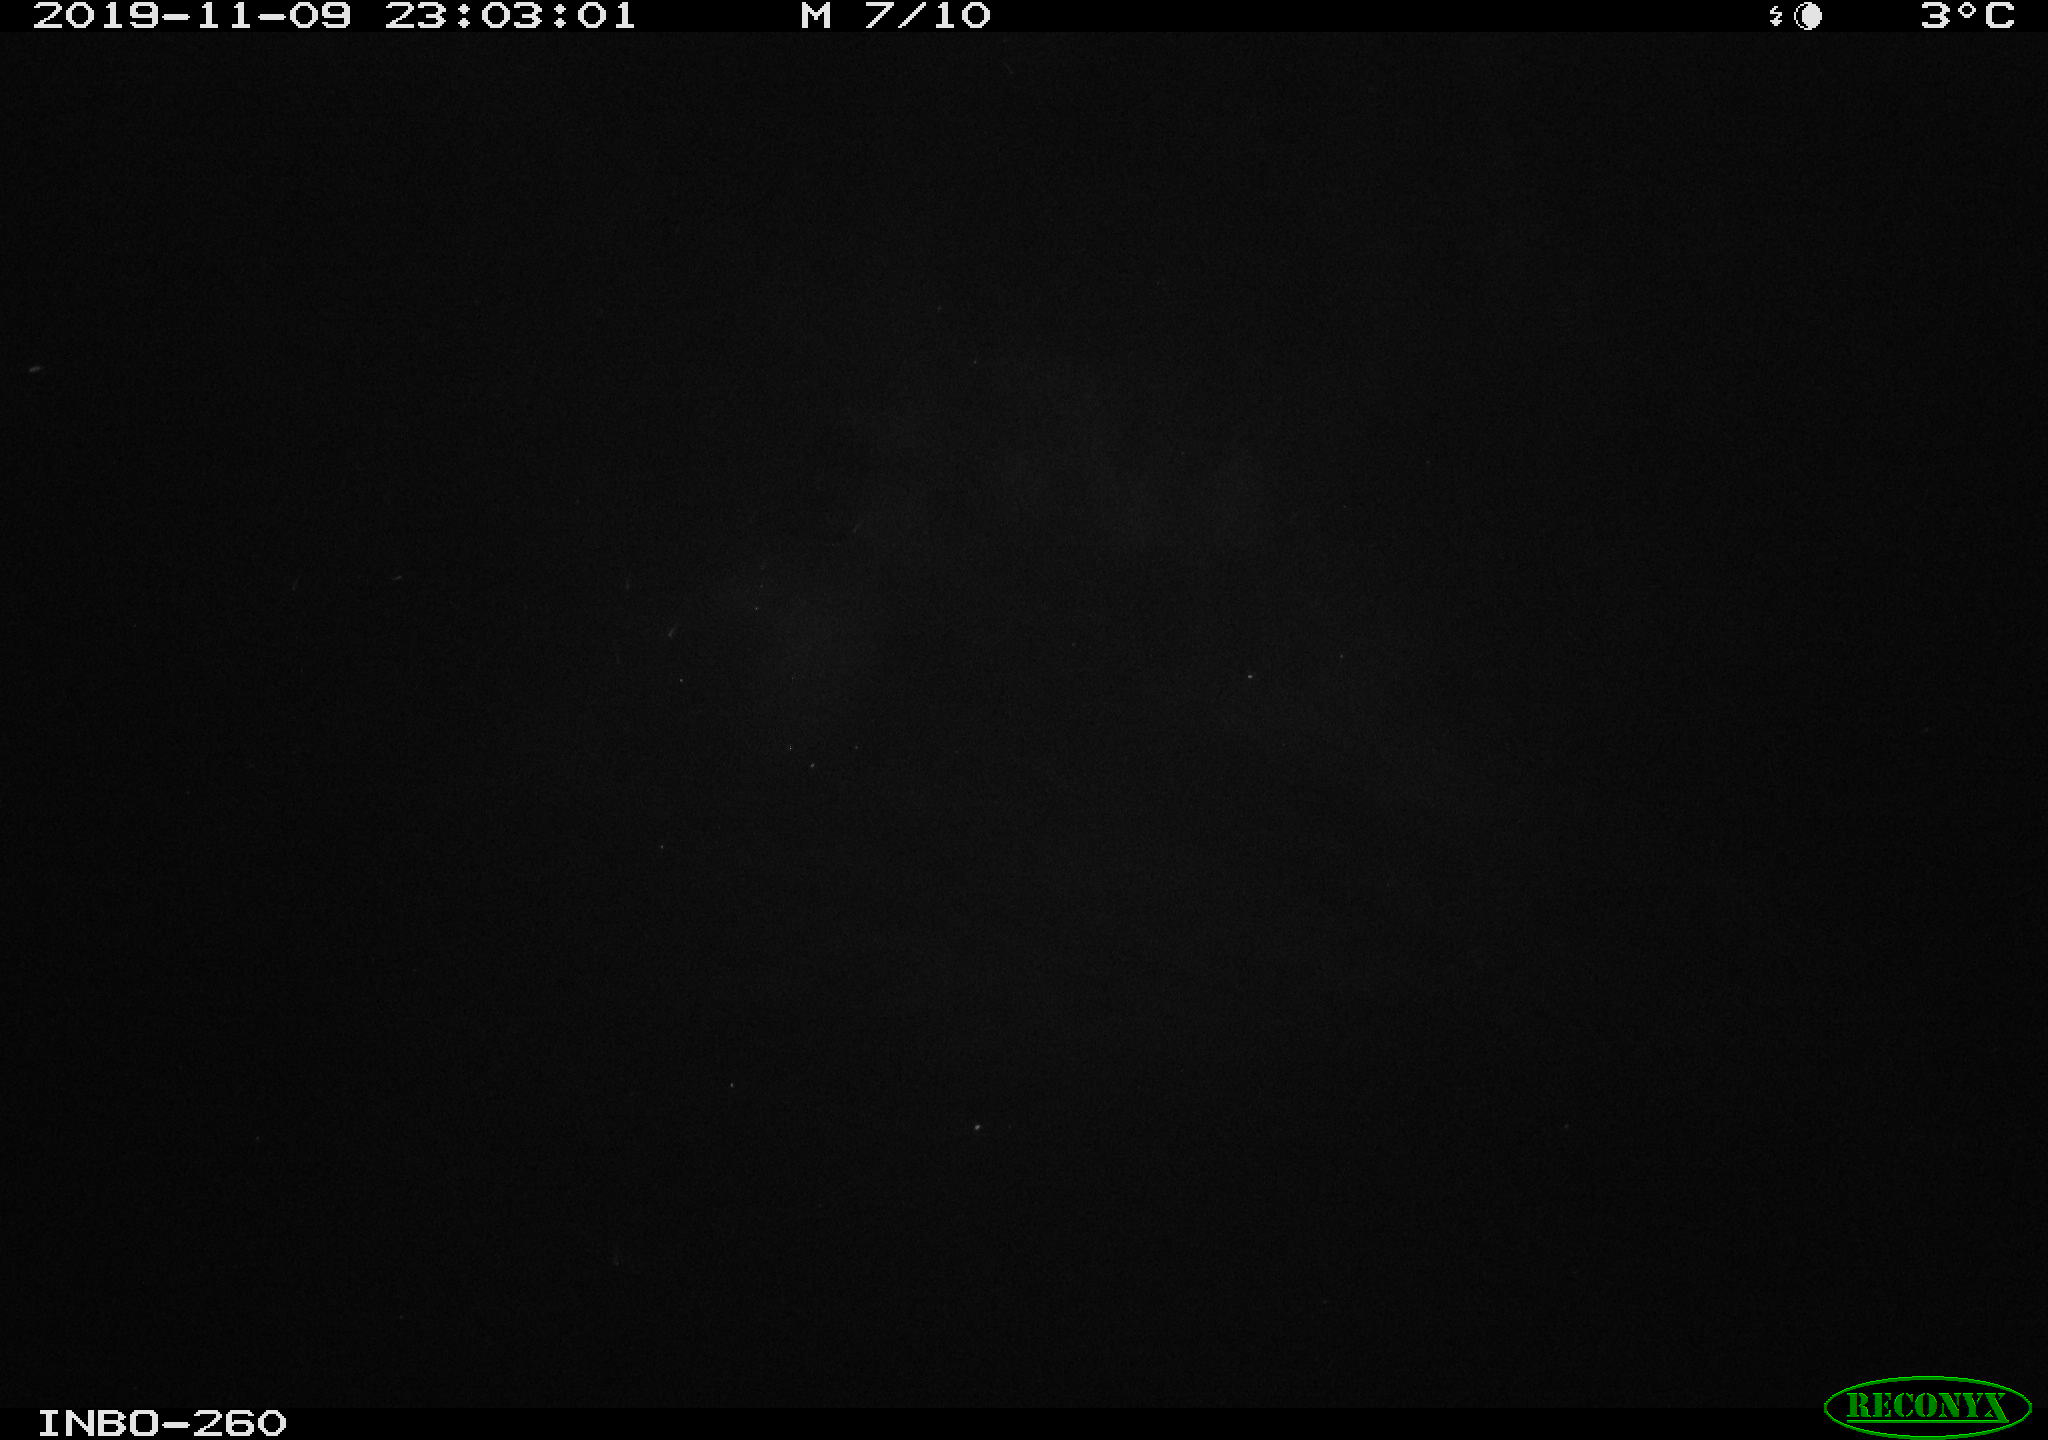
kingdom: Animalia
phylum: Chordata
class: Aves
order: Anseriformes
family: Anatidae
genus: Anas
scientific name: Anas platyrhynchos
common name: Mallard
